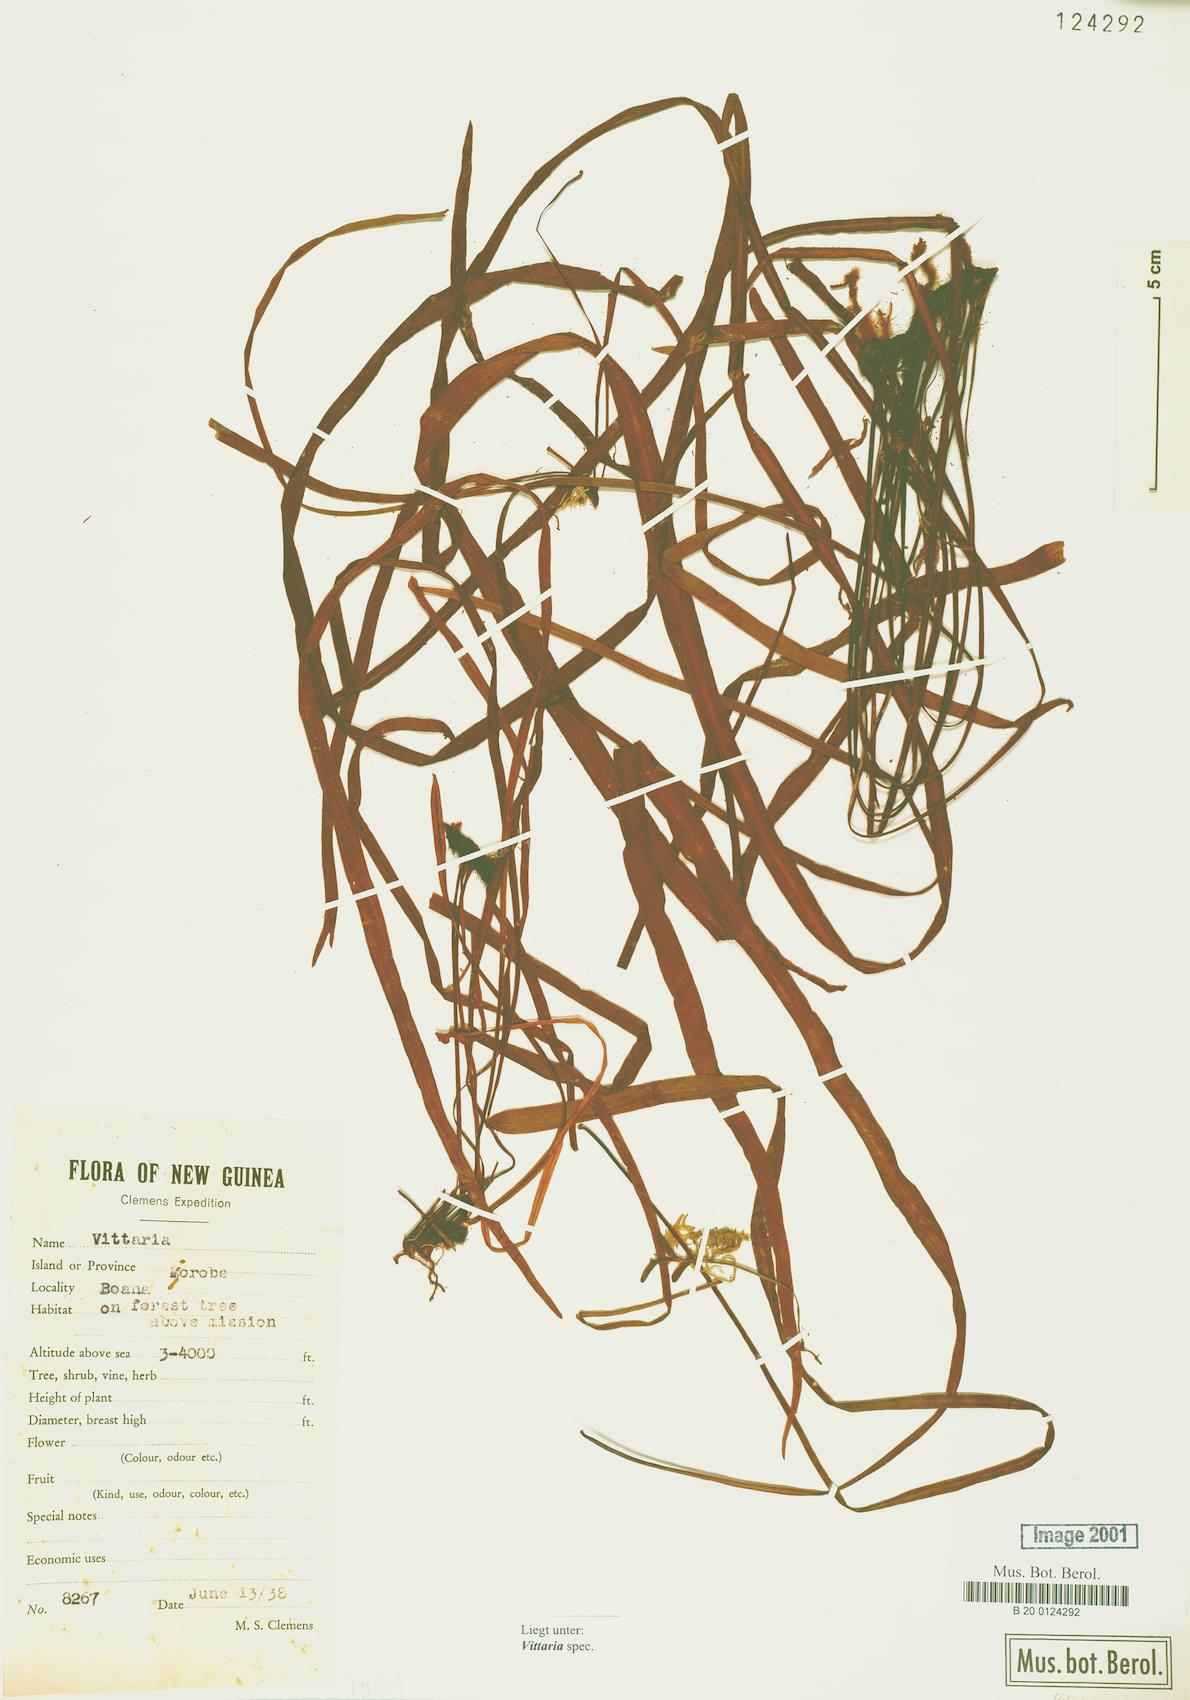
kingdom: Plantae
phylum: Tracheophyta
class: Polypodiopsida
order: Polypodiales
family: Pteridaceae
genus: Vittaria
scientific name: Vittaria
